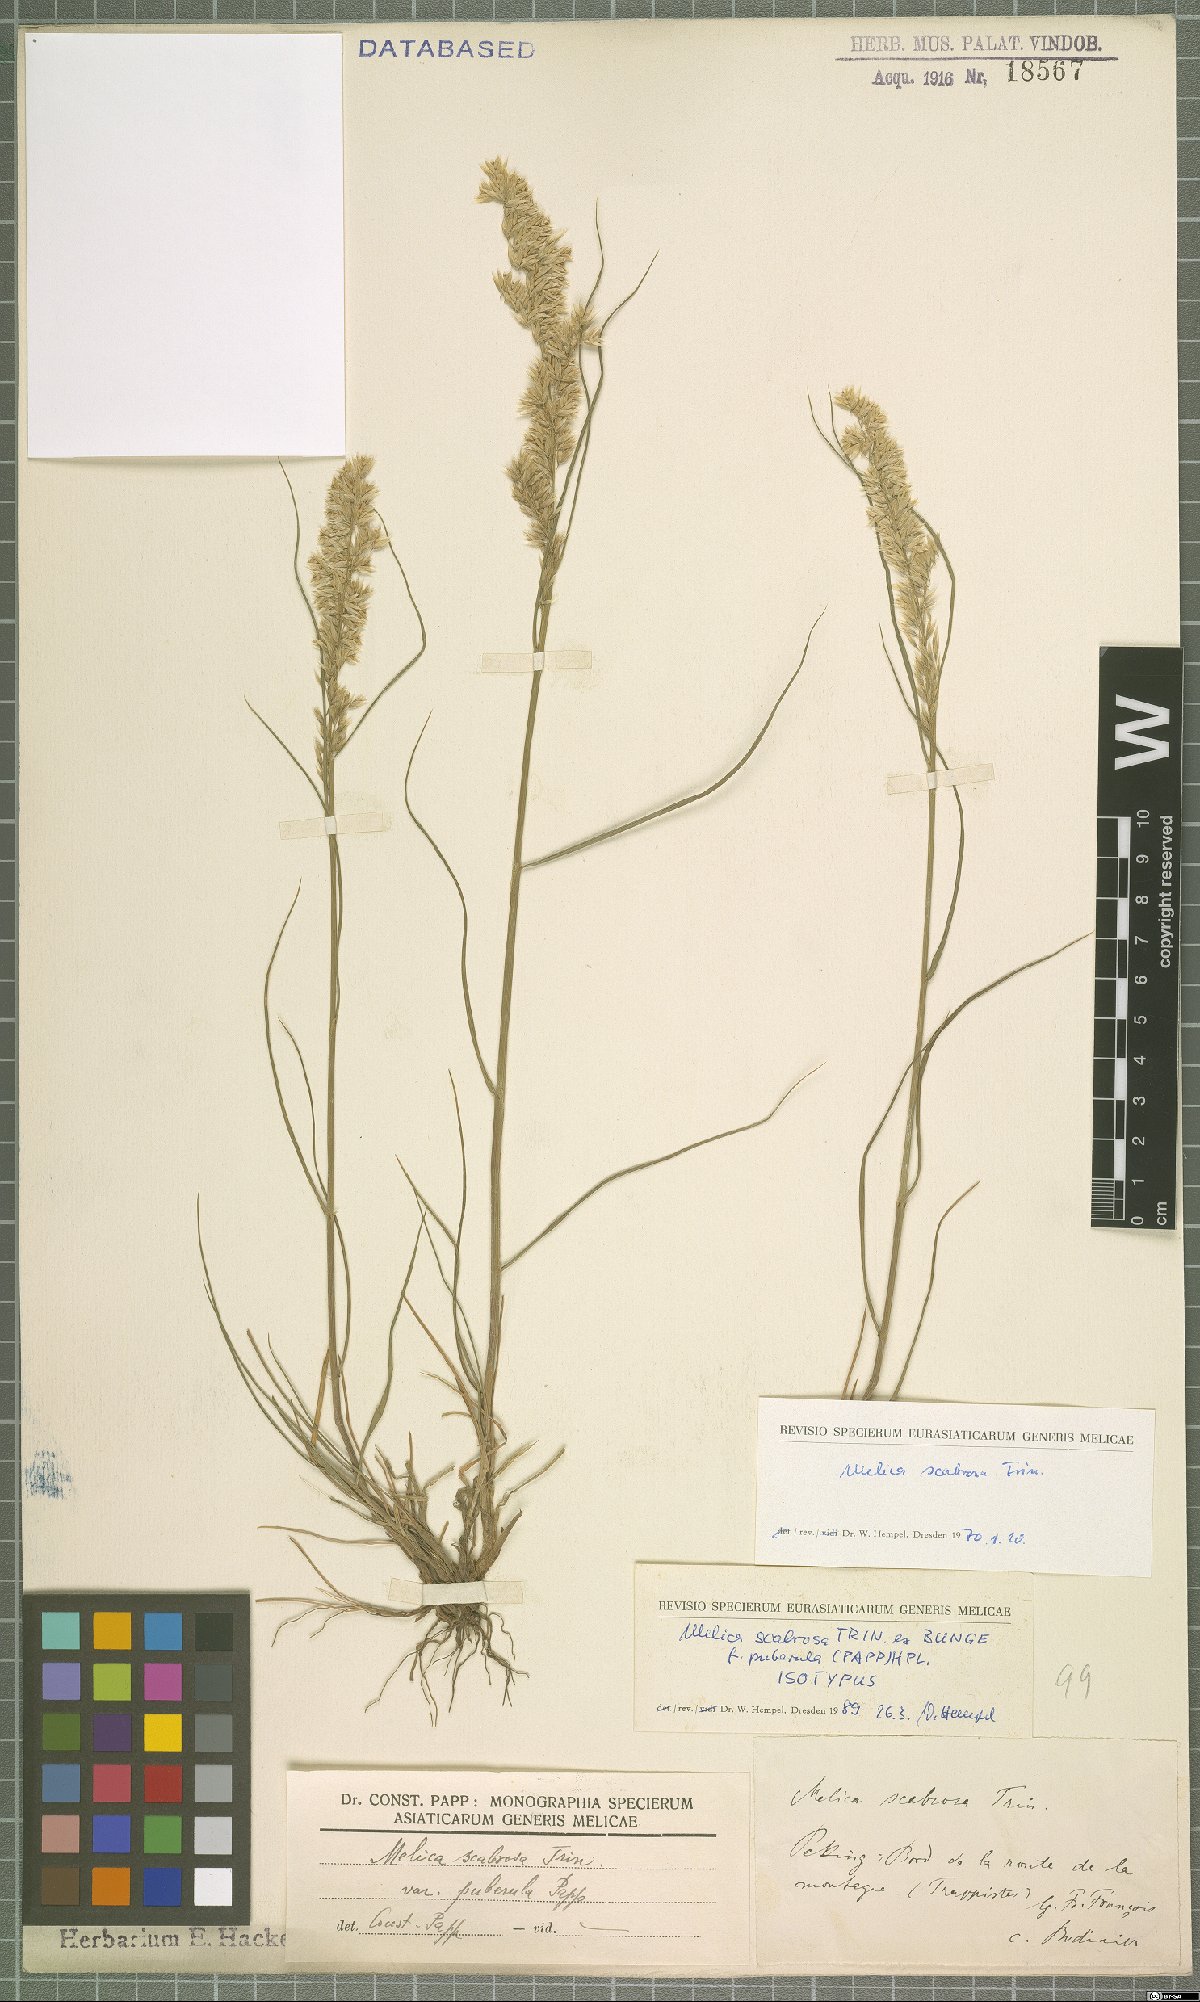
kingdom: Plantae
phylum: Tracheophyta
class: Liliopsida
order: Poales
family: Poaceae
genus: Melica
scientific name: Melica scabrosa
